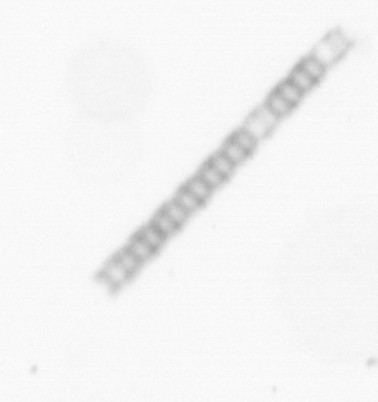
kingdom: Chromista
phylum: Ochrophyta
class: Bacillariophyceae
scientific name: Bacillariophyceae
